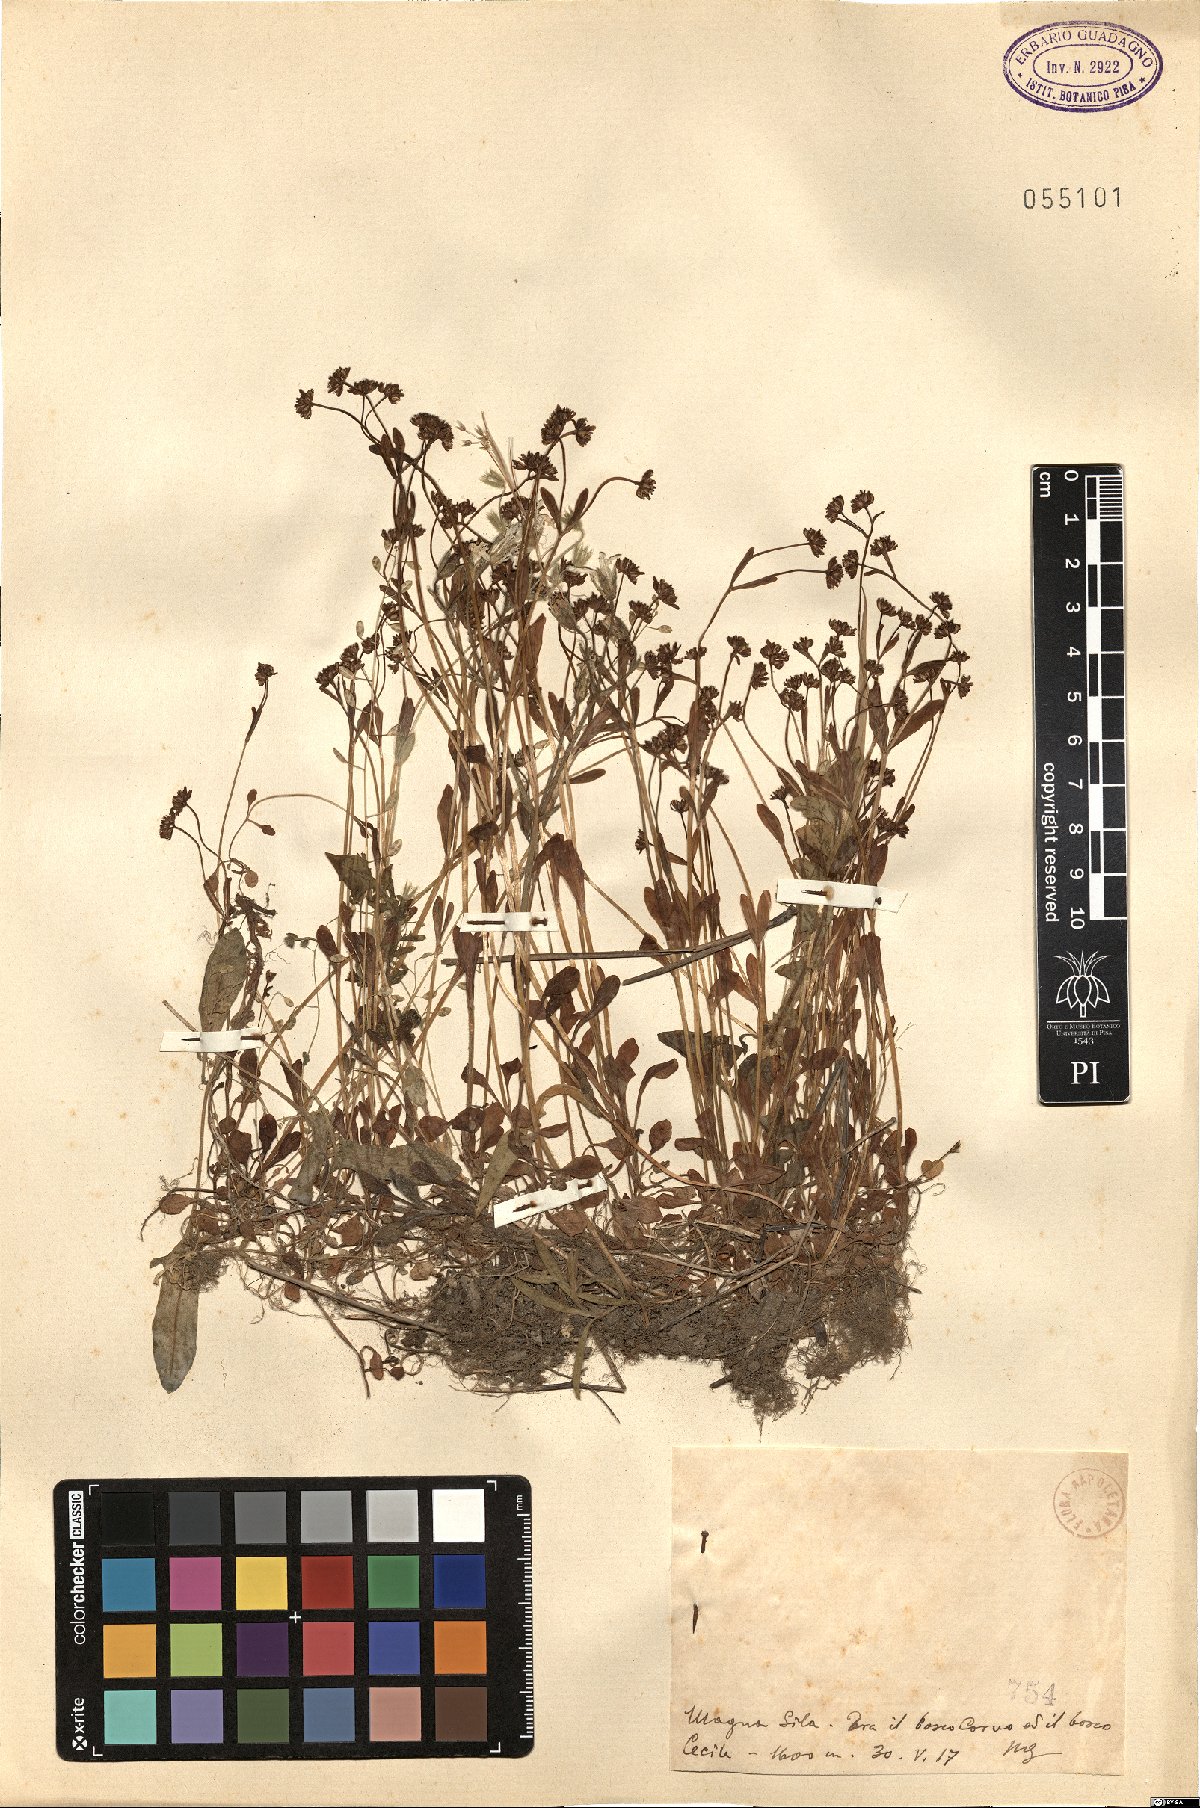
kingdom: Plantae
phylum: Tracheophyta
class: Magnoliopsida
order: Dipsacales
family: Caprifoliaceae
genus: Valerianella
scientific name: Valerianella
